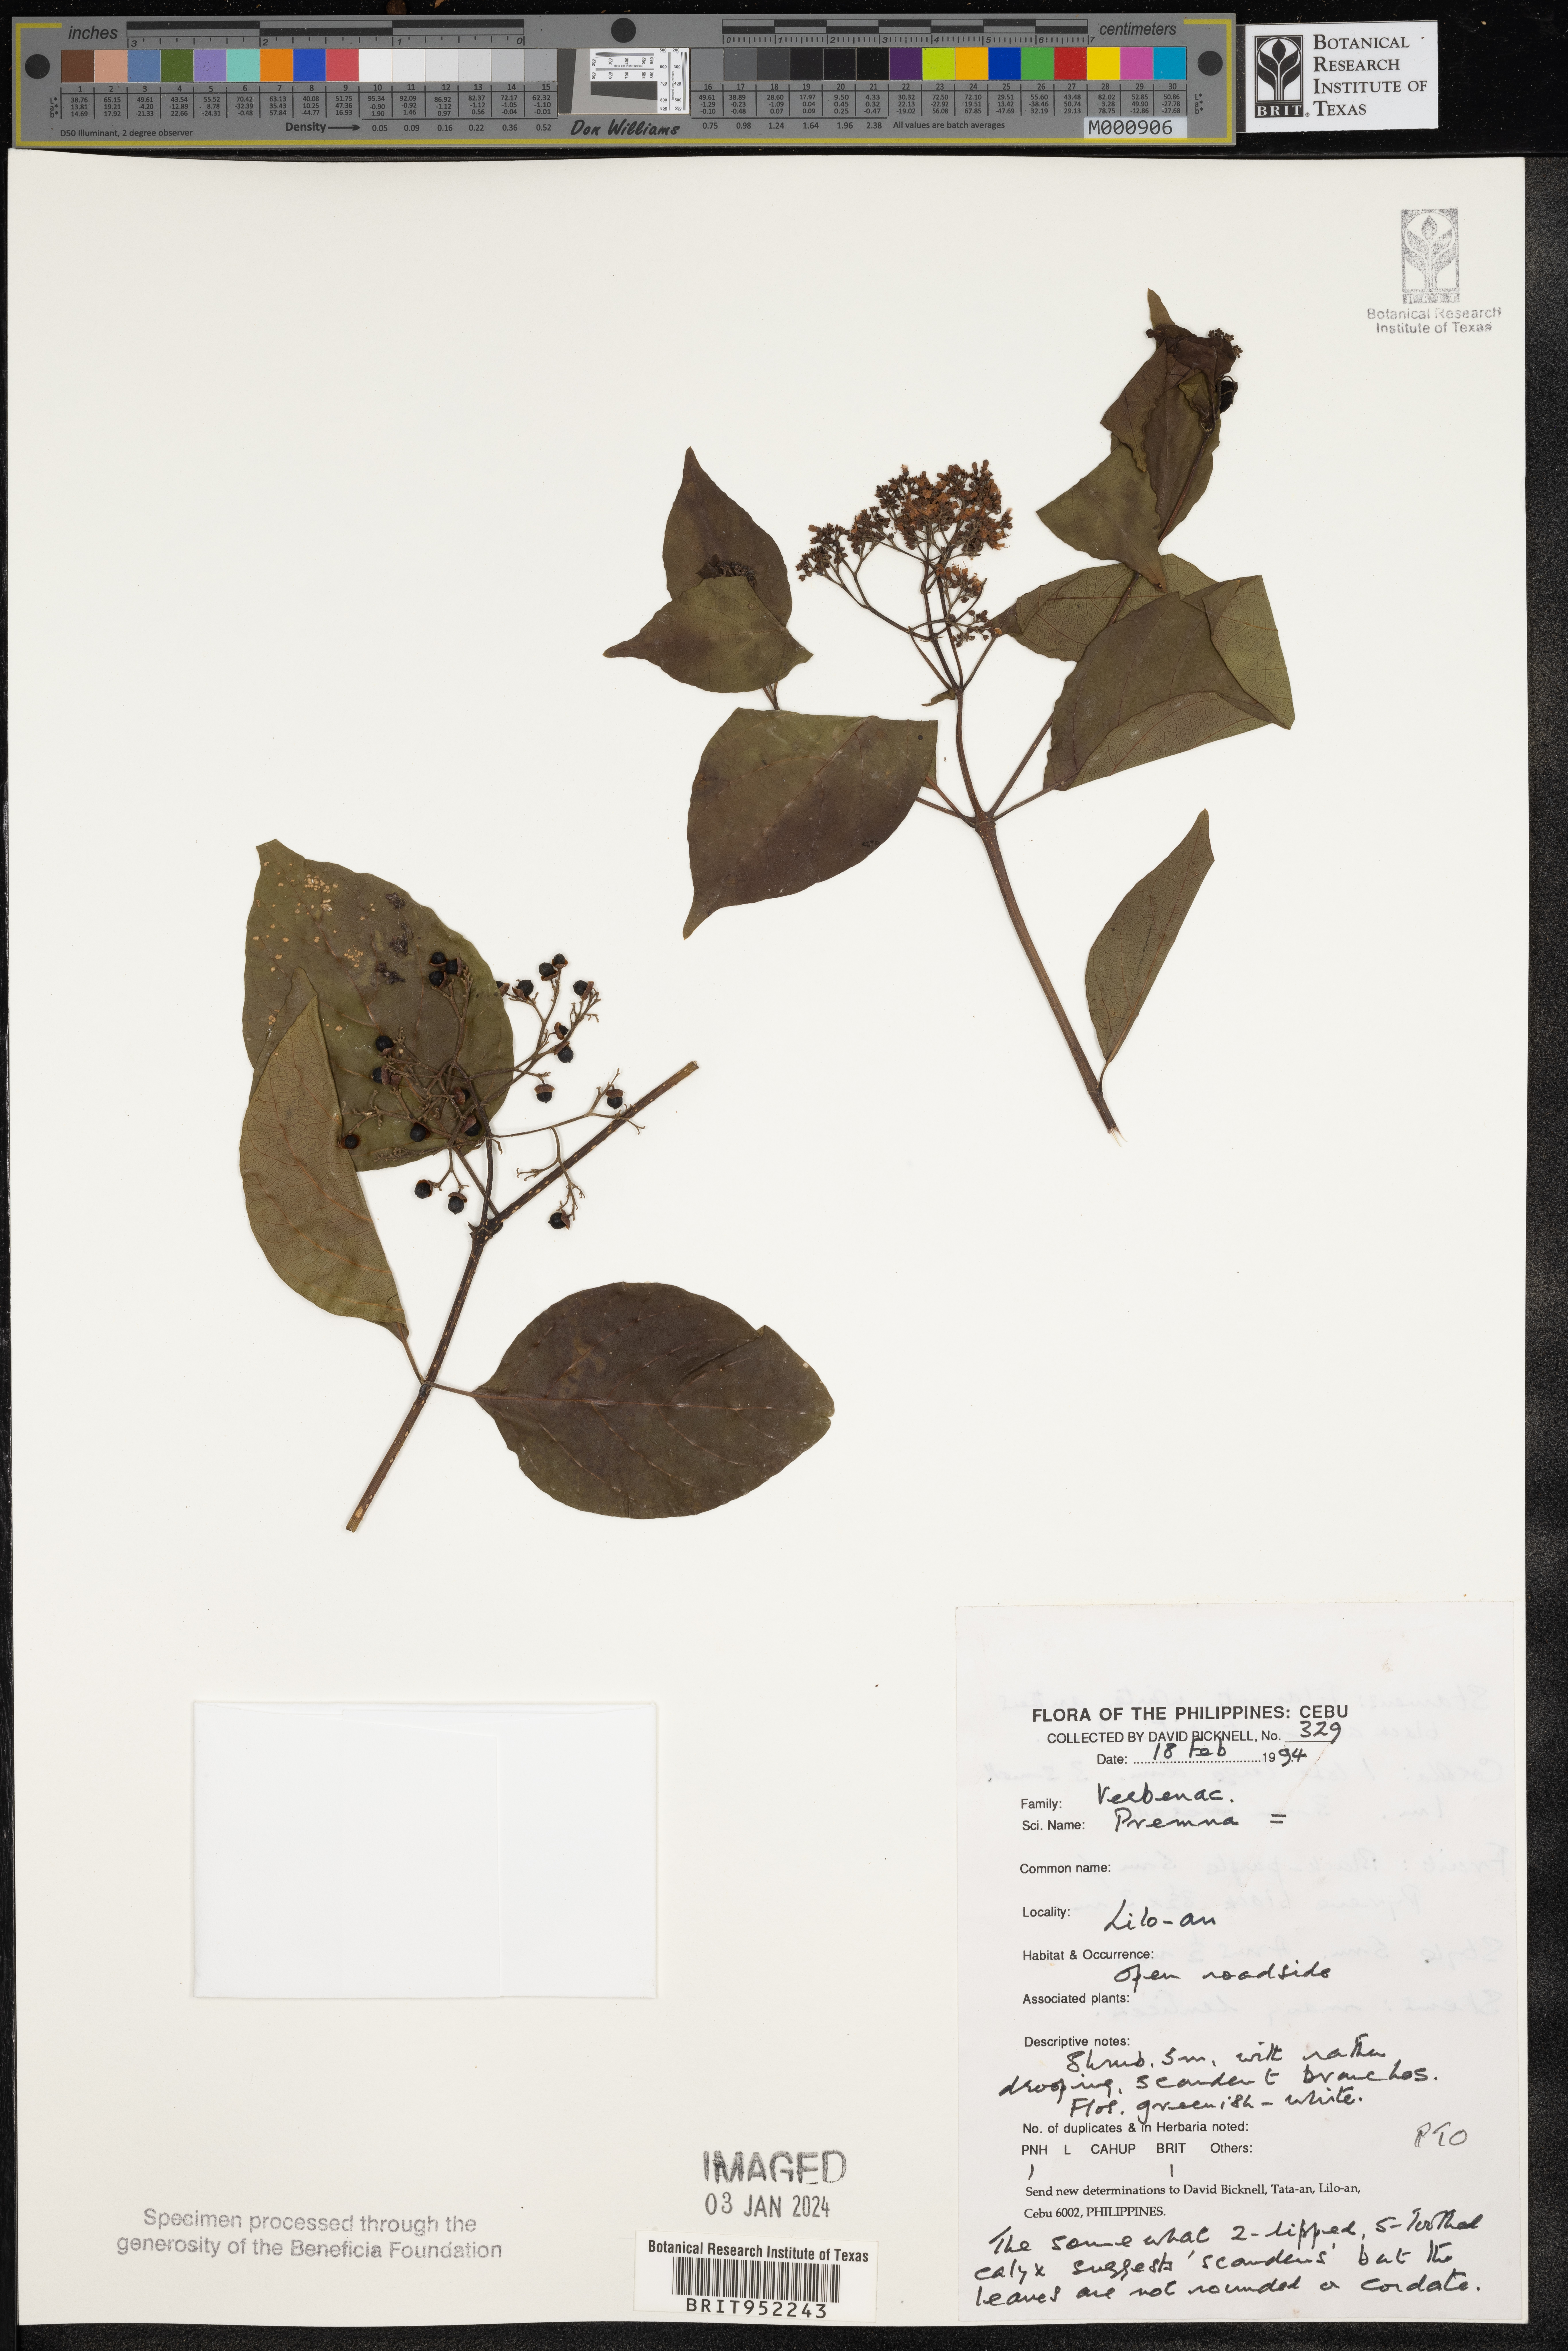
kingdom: Plantae
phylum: Tracheophyta
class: Magnoliopsida
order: Lamiales
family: Lamiaceae
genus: Premna
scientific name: Premna
